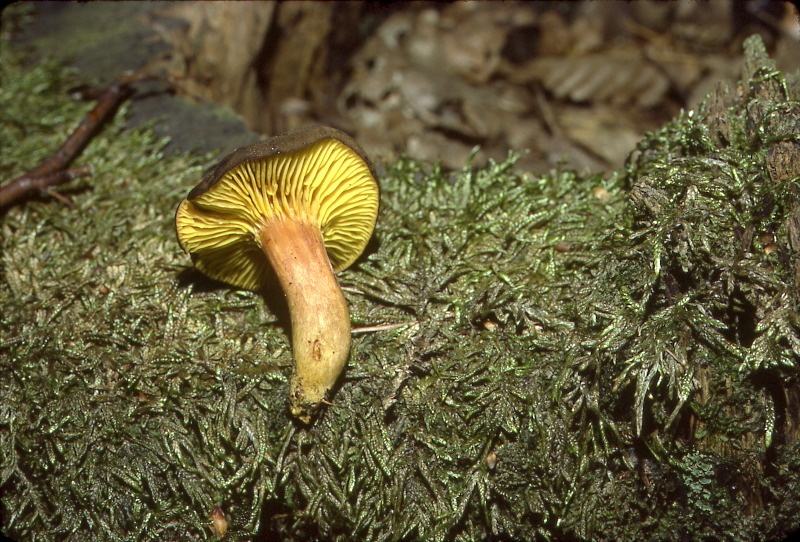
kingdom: Fungi
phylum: Basidiomycota
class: Agaricomycetes
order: Boletales
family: Boletaceae
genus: Phylloporus
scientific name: Phylloporus pelletieri
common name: Golden gilled bolete
